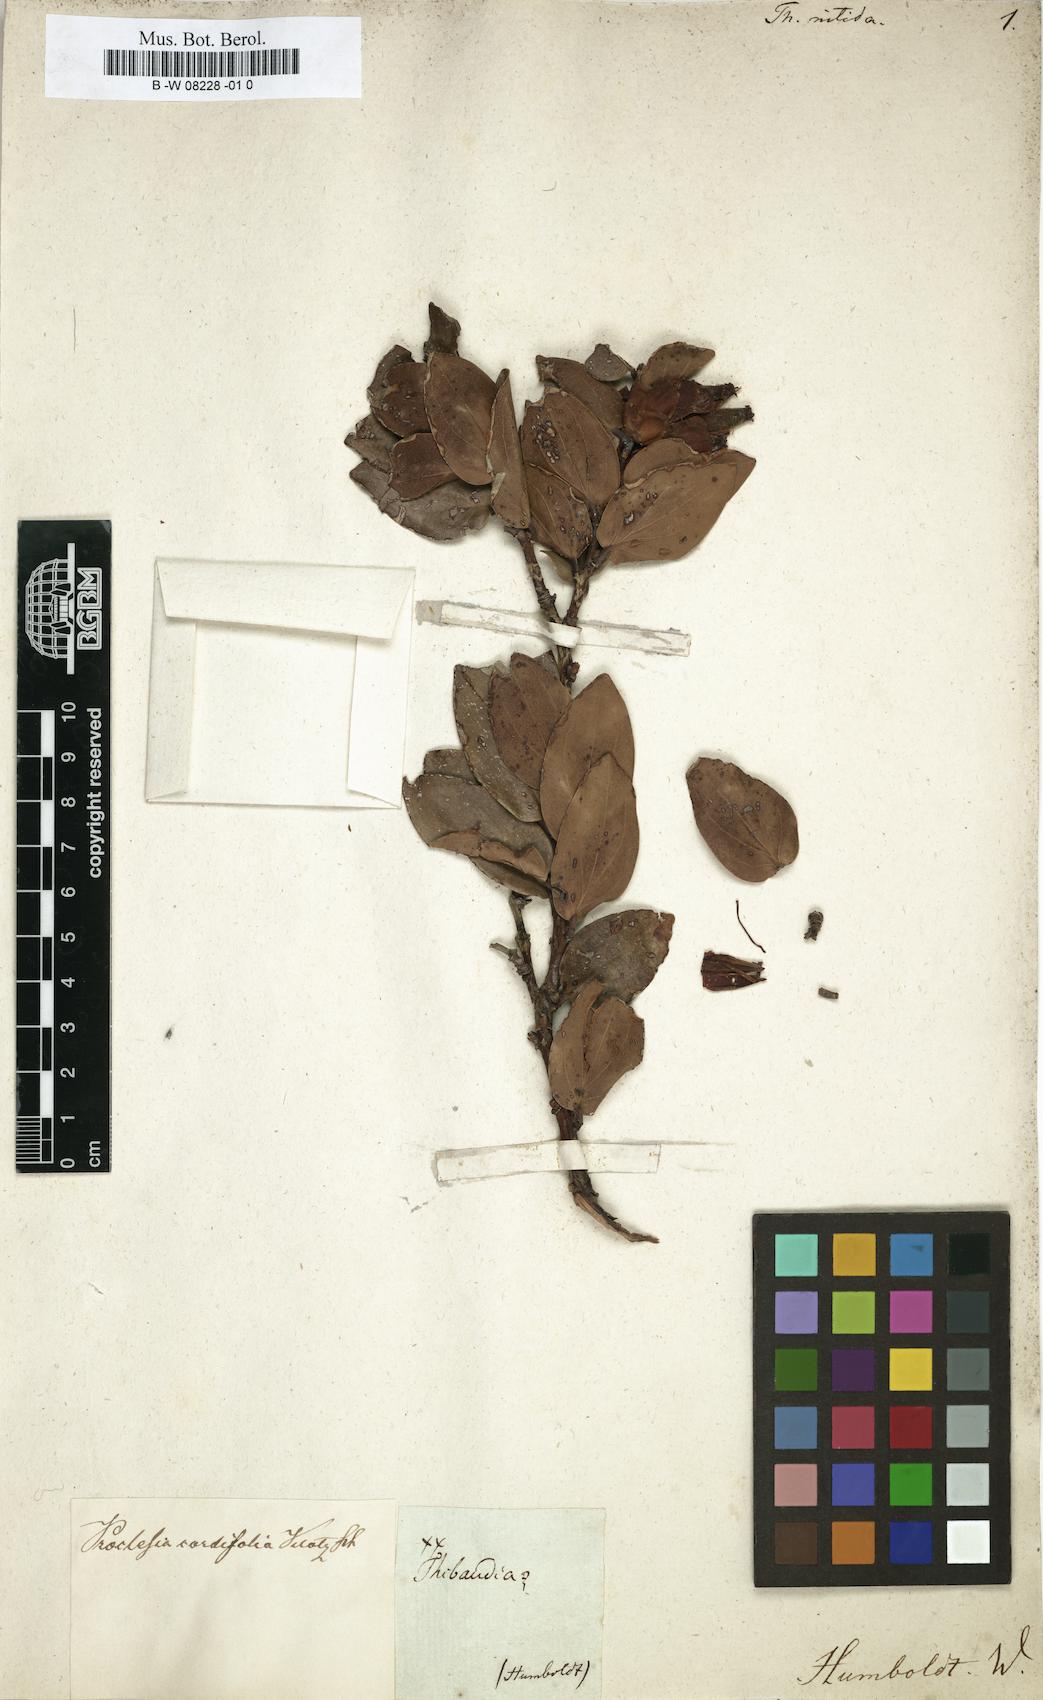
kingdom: Plantae
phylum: Tracheophyta
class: Magnoliopsida
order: Ericales
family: Ericaceae
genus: Cavendishia
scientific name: Cavendishia nitida
